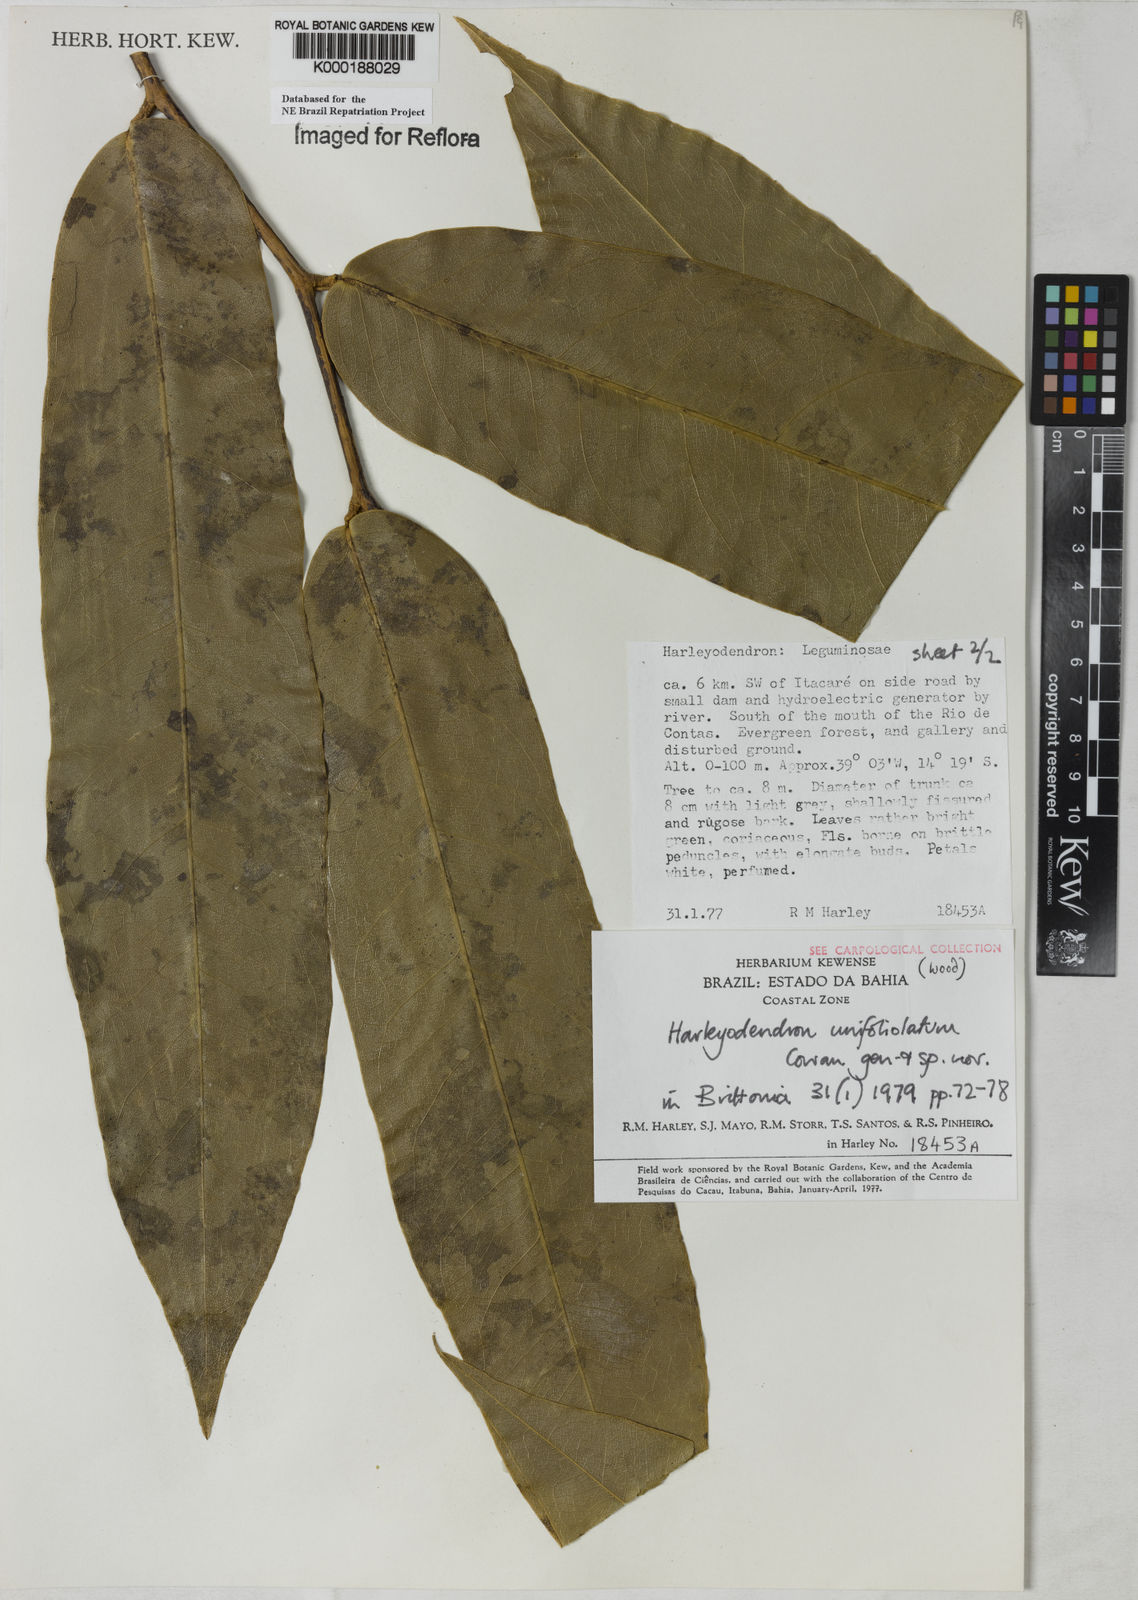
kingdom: Plantae
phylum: Tracheophyta
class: Magnoliopsida
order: Fabales
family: Fabaceae
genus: Harleyodendron
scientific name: Harleyodendron unifoliolatum
